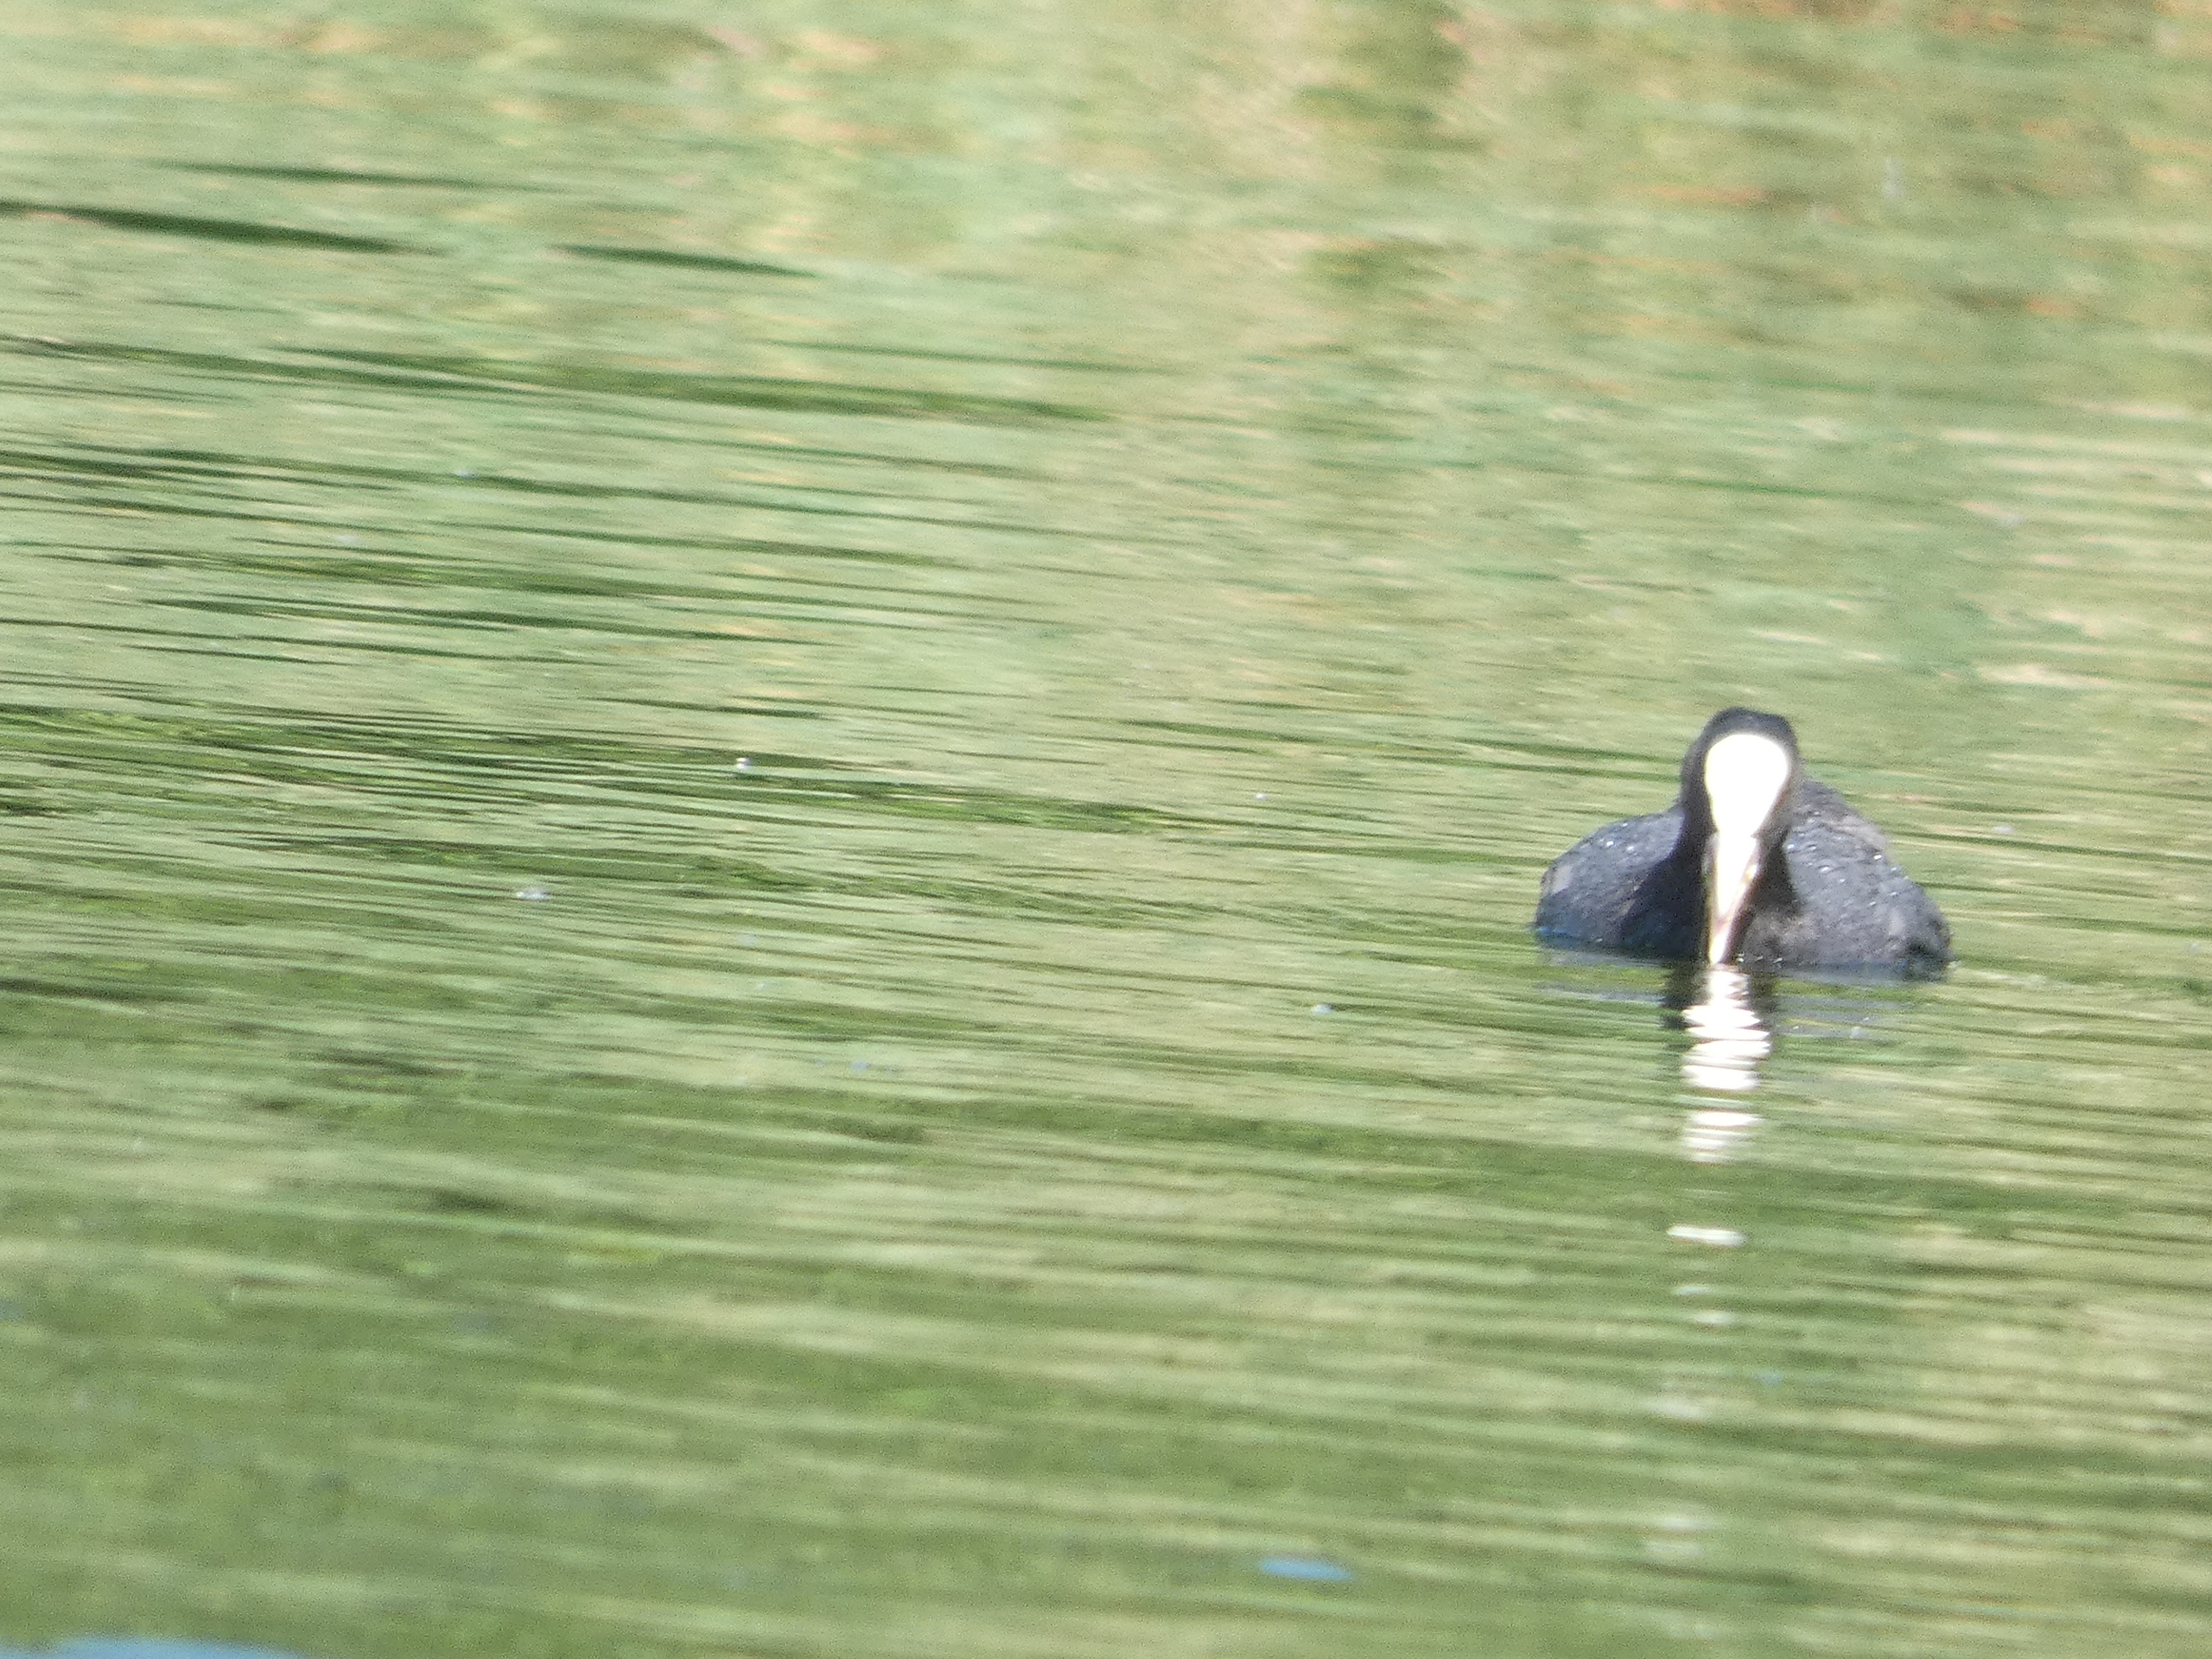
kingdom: Animalia
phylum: Chordata
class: Aves
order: Gruiformes
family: Rallidae
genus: Fulica
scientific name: Fulica atra
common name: Blishøne
